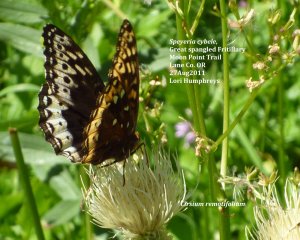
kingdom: Animalia
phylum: Arthropoda
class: Insecta
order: Lepidoptera
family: Nymphalidae
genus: Speyeria
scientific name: Speyeria cybele
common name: Great Spangled Fritillary
